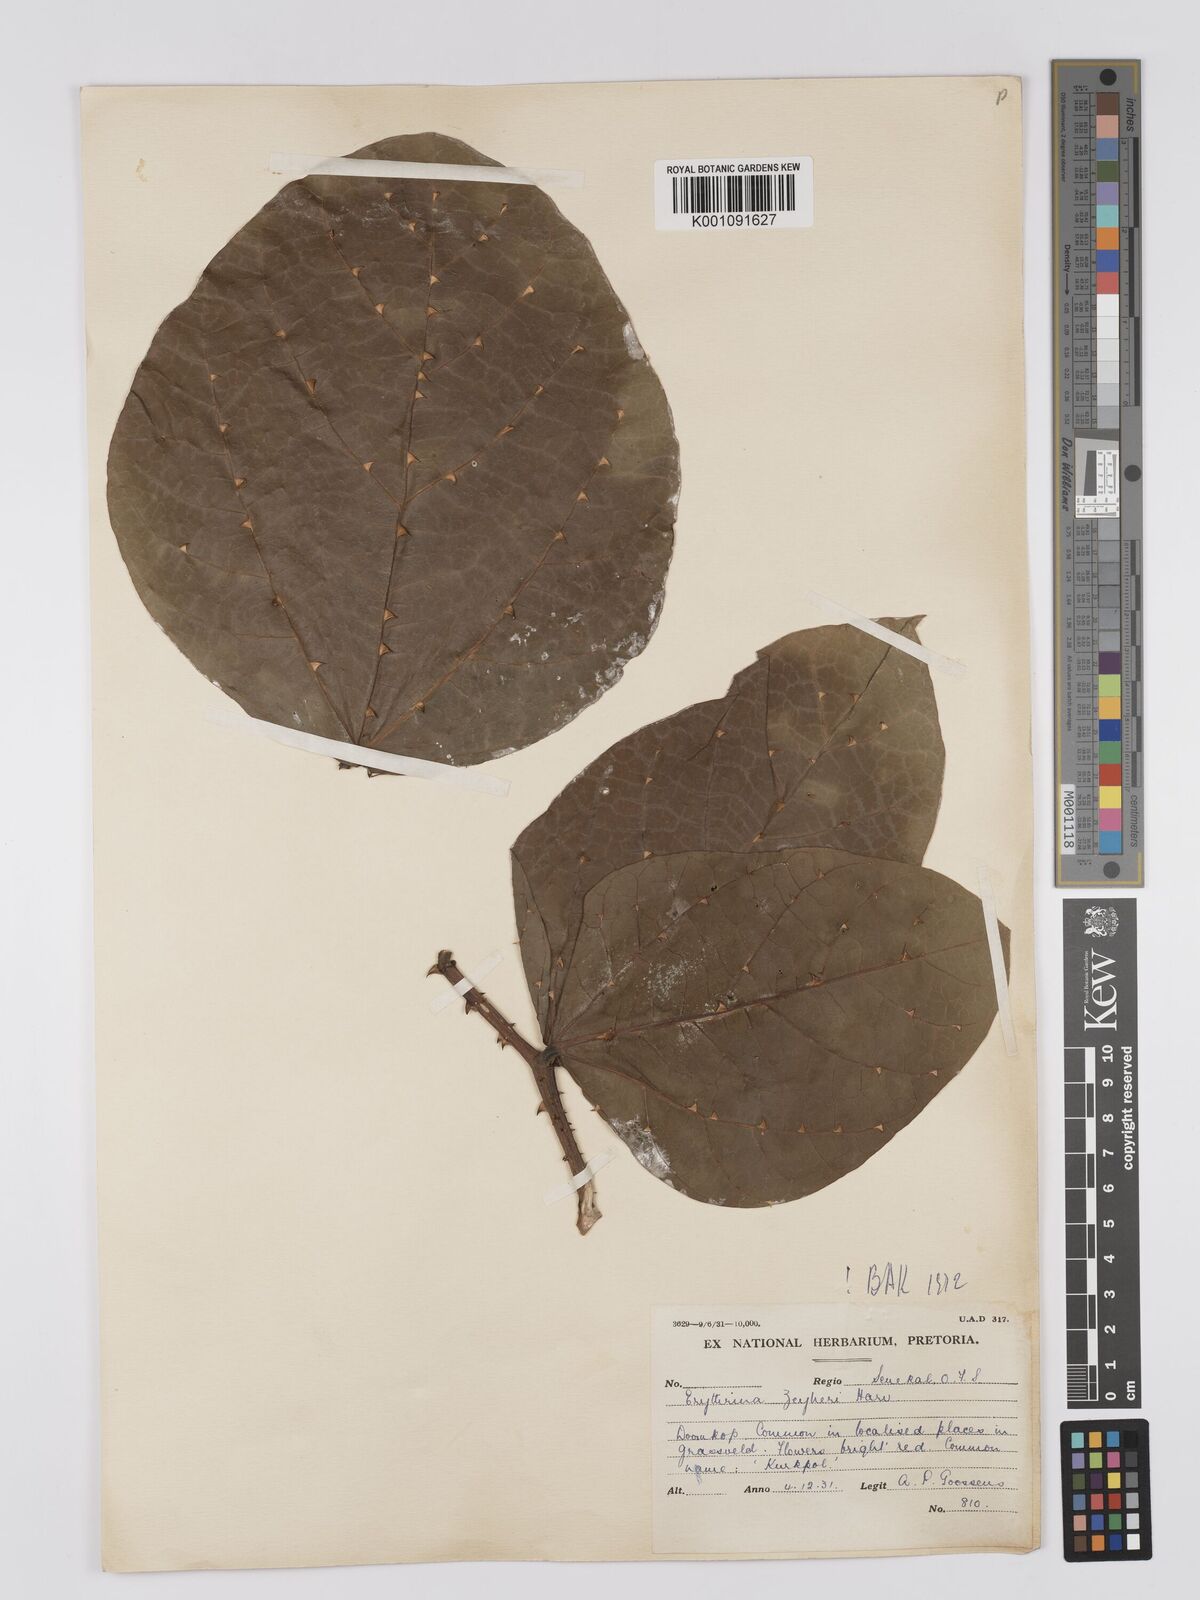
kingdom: Plantae
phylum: Tracheophyta
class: Magnoliopsida
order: Fabales
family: Fabaceae
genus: Erythrina
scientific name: Erythrina zeyheri
